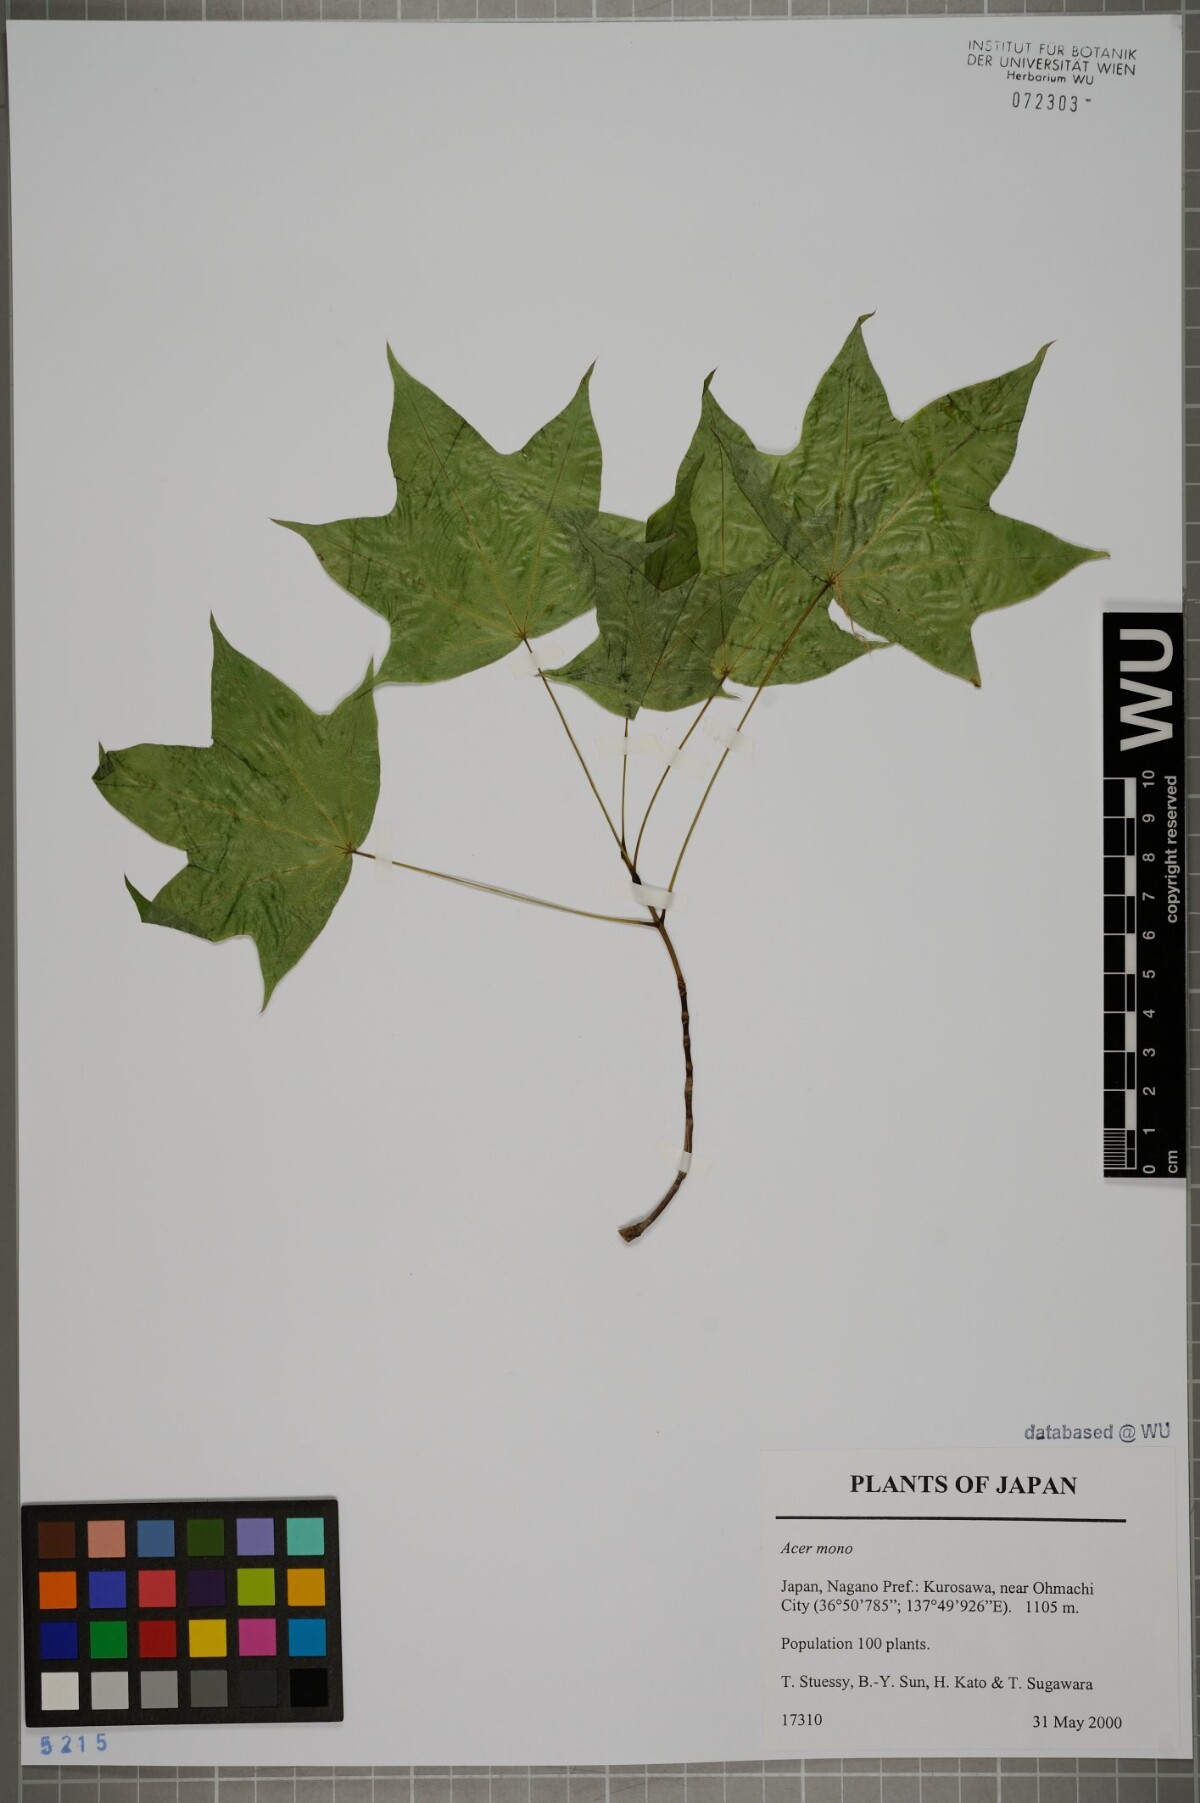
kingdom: Plantae
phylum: Tracheophyta
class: Magnoliopsida
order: Sapindales
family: Sapindaceae
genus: Acer
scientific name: Acer pictum
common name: The painted maple
